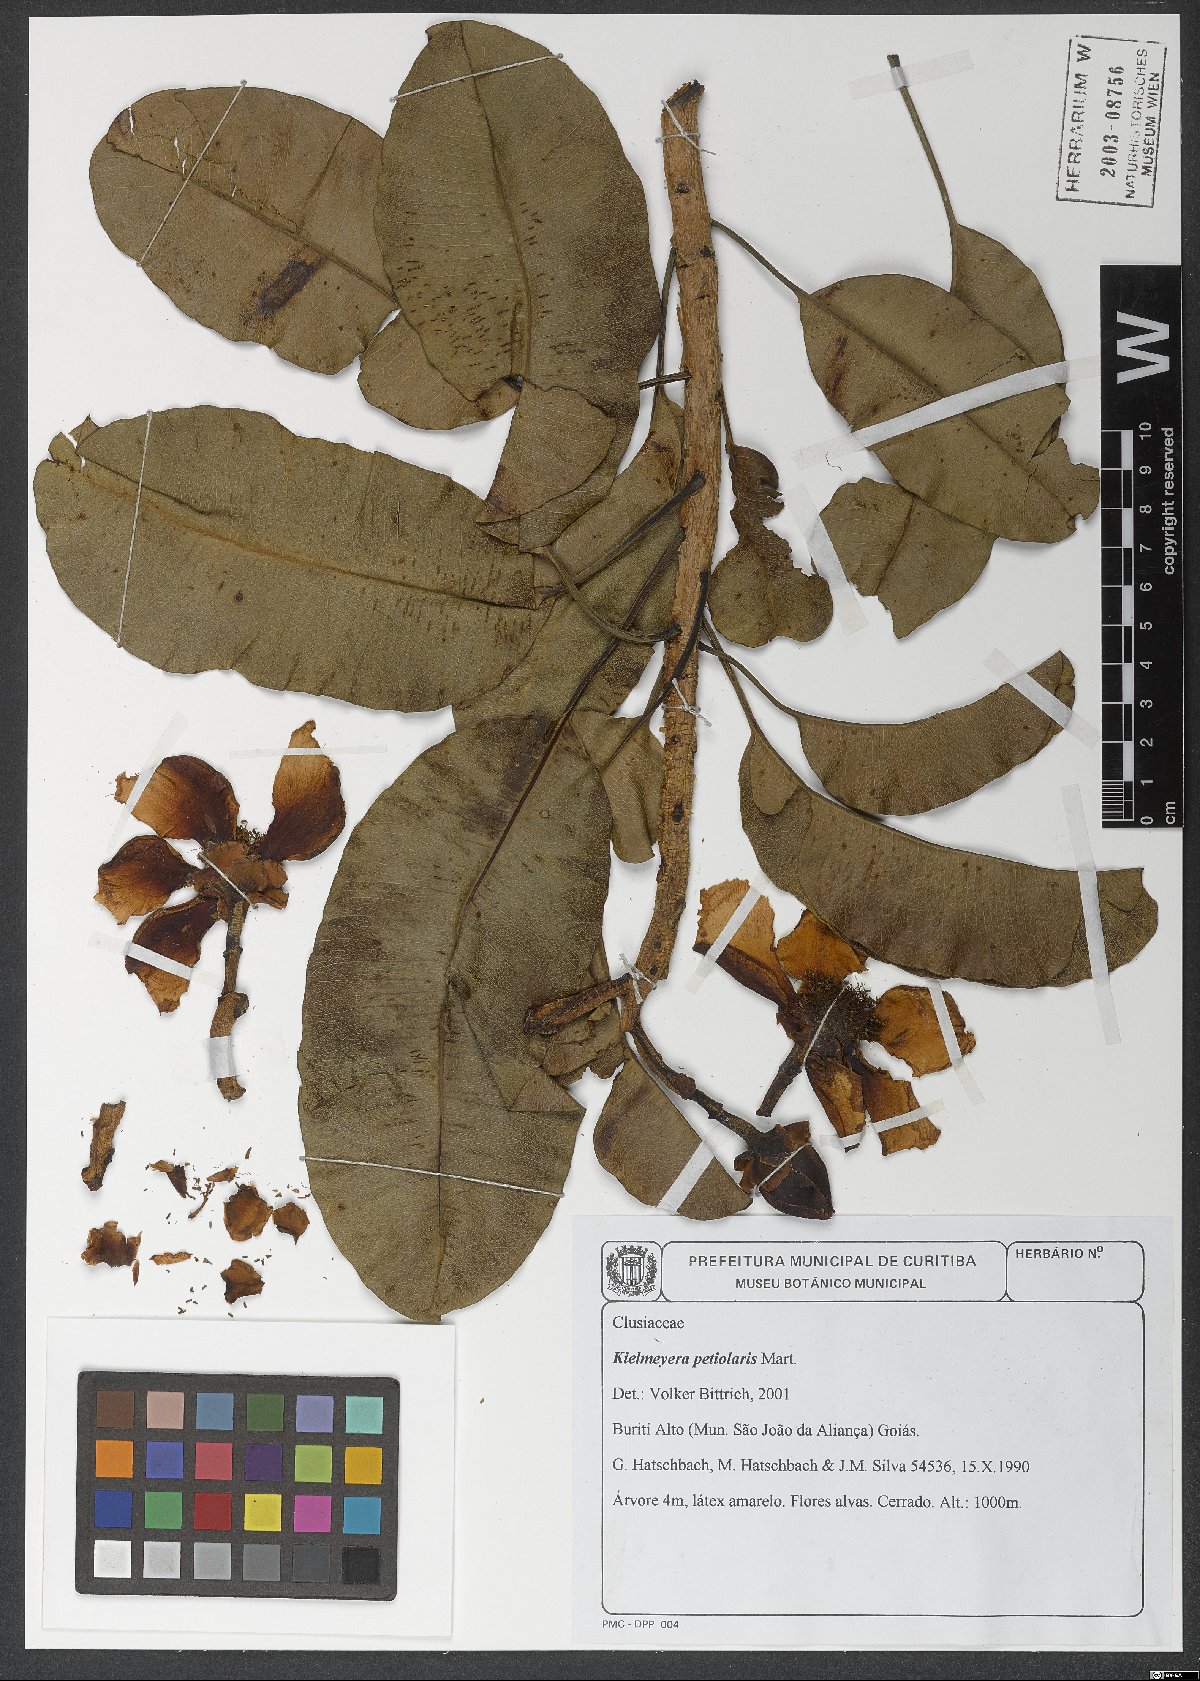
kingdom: Plantae
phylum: Tracheophyta
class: Magnoliopsida
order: Malpighiales
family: Calophyllaceae
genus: Kielmeyera
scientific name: Kielmeyera petiolaris
